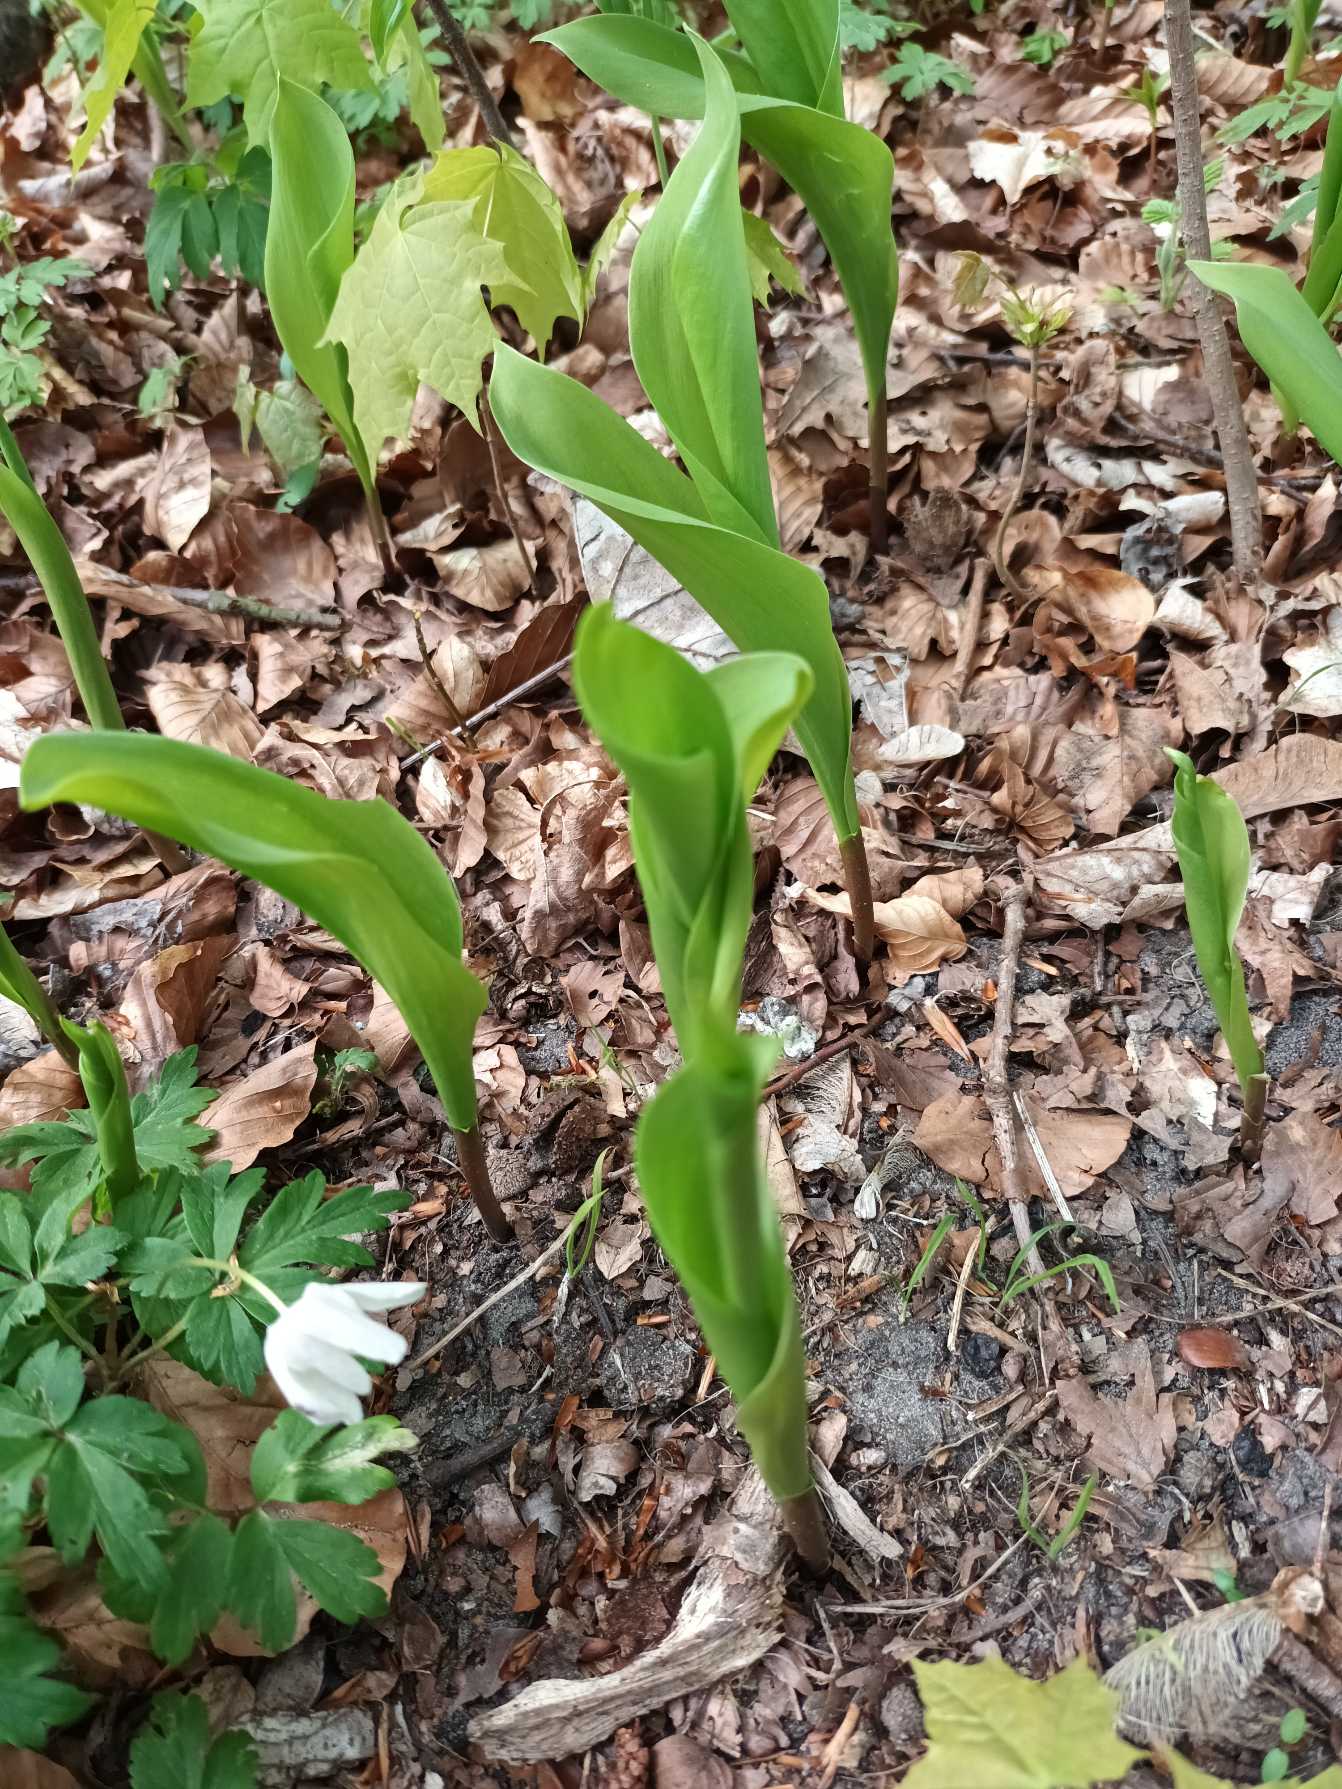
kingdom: Plantae
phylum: Tracheophyta
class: Liliopsida
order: Asparagales
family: Asparagaceae
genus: Convallaria
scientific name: Convallaria majalis
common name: Liljekonval
